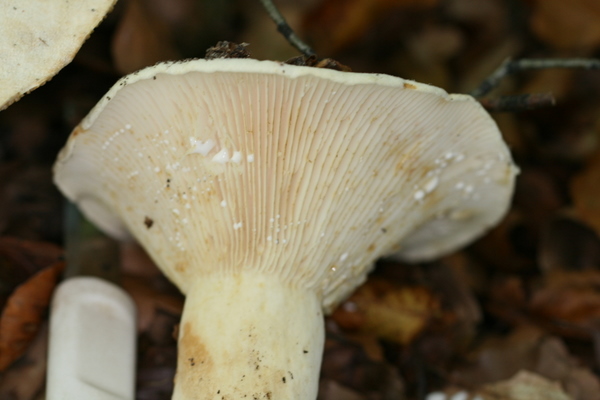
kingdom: Fungi
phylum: Basidiomycota
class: Agaricomycetes
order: Russulales
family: Russulaceae
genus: Lactifluus
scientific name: Lactifluus vellereus
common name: hvidfiltet mælkehat
